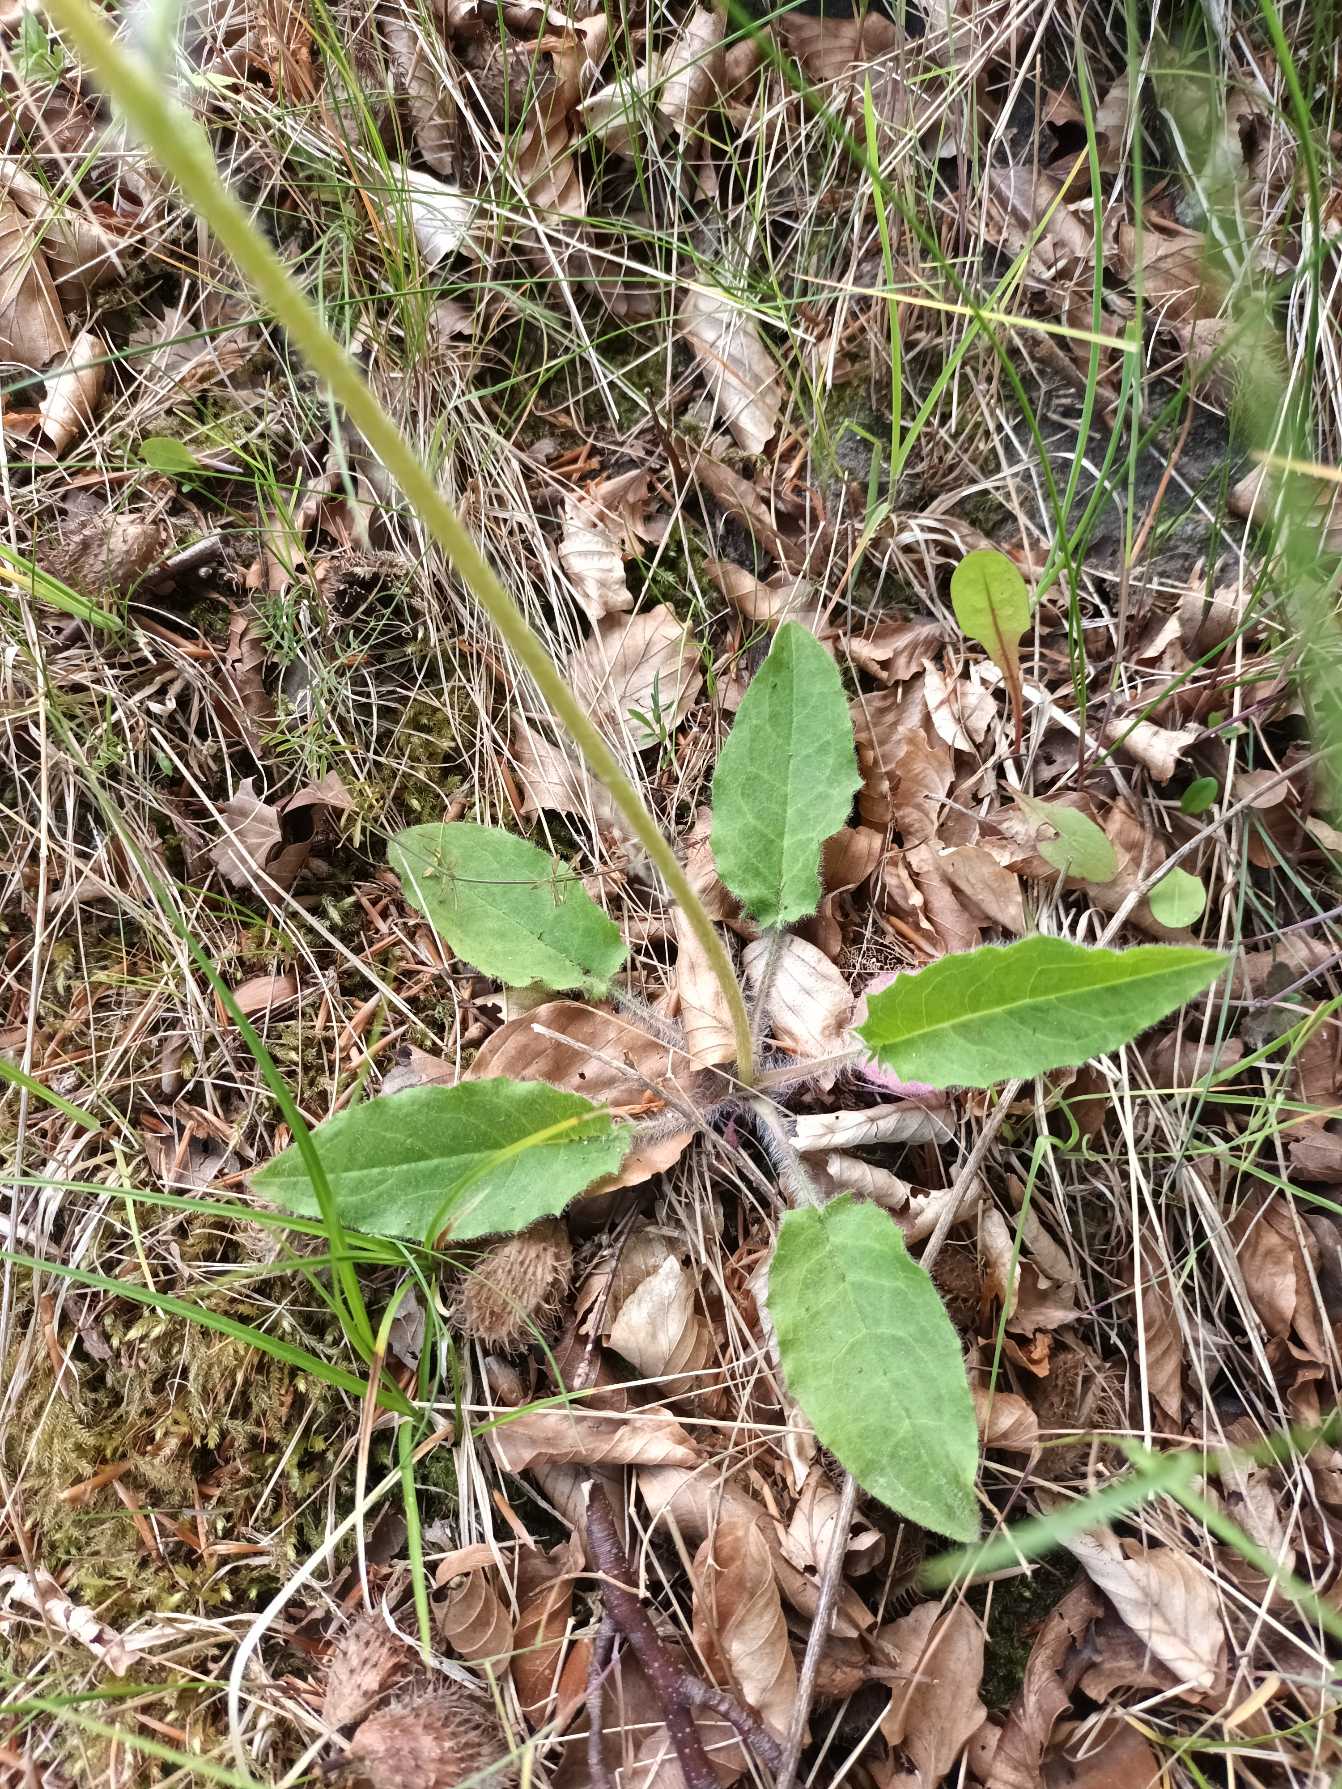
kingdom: Plantae
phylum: Tracheophyta
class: Magnoliopsida
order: Asterales
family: Asteraceae
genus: Hieracium
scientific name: Hieracium
